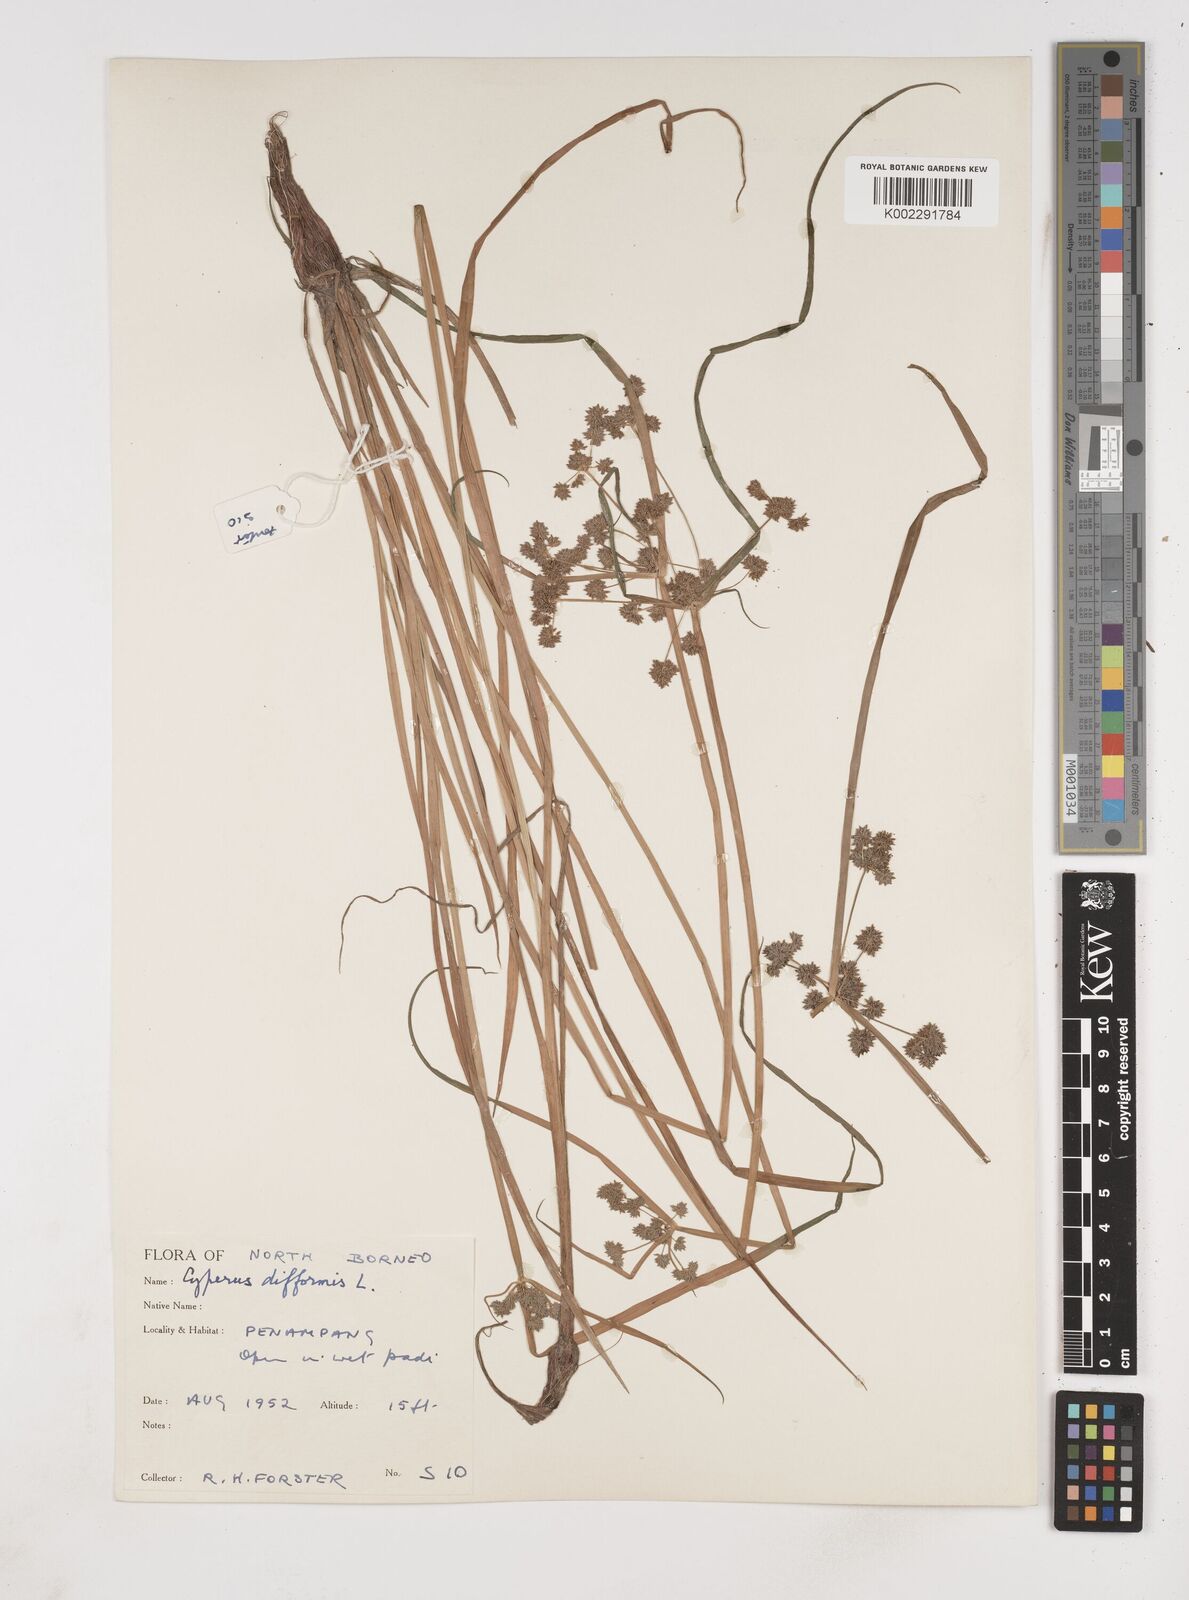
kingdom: Plantae
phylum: Tracheophyta
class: Liliopsida
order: Poales
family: Cyperaceae
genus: Cyperus
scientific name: Cyperus difformis
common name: Variable flatsedge
